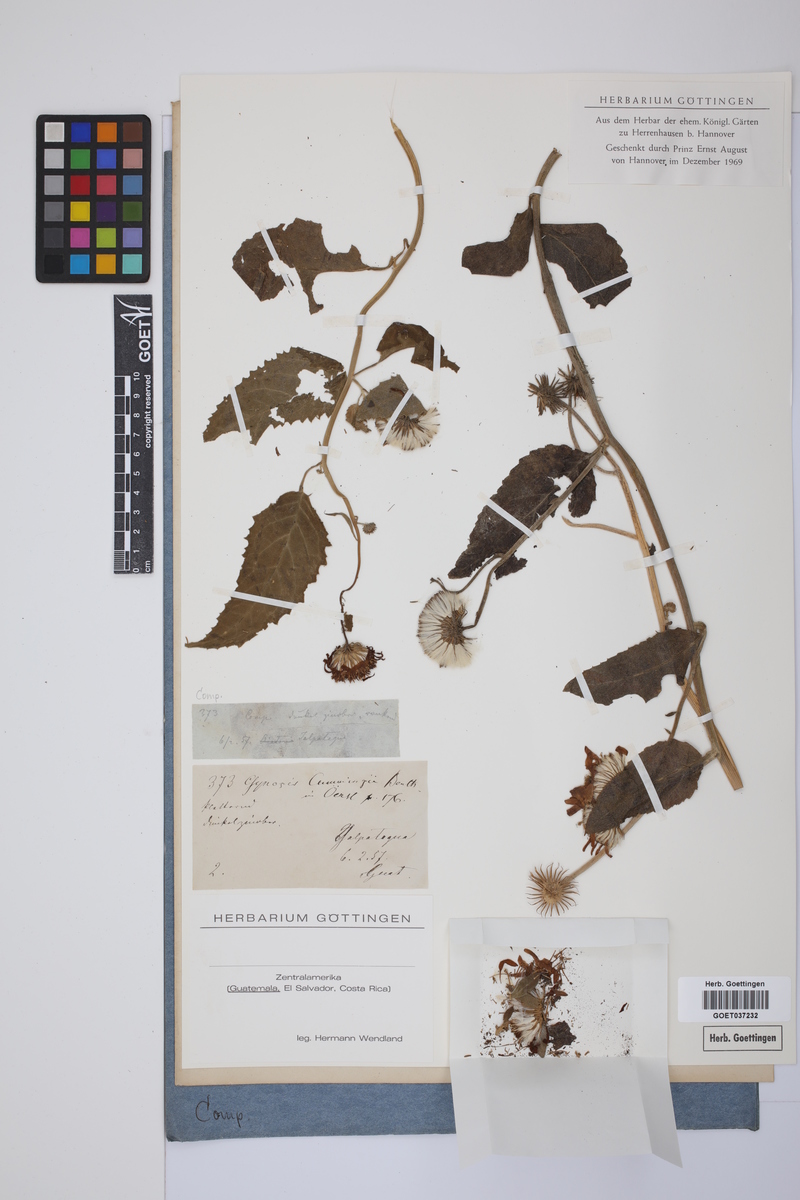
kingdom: Plantae
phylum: Tracheophyta
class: Magnoliopsida
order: Asterales
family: Asteraceae
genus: Pseudogynoxys
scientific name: Pseudogynoxys cumingii
